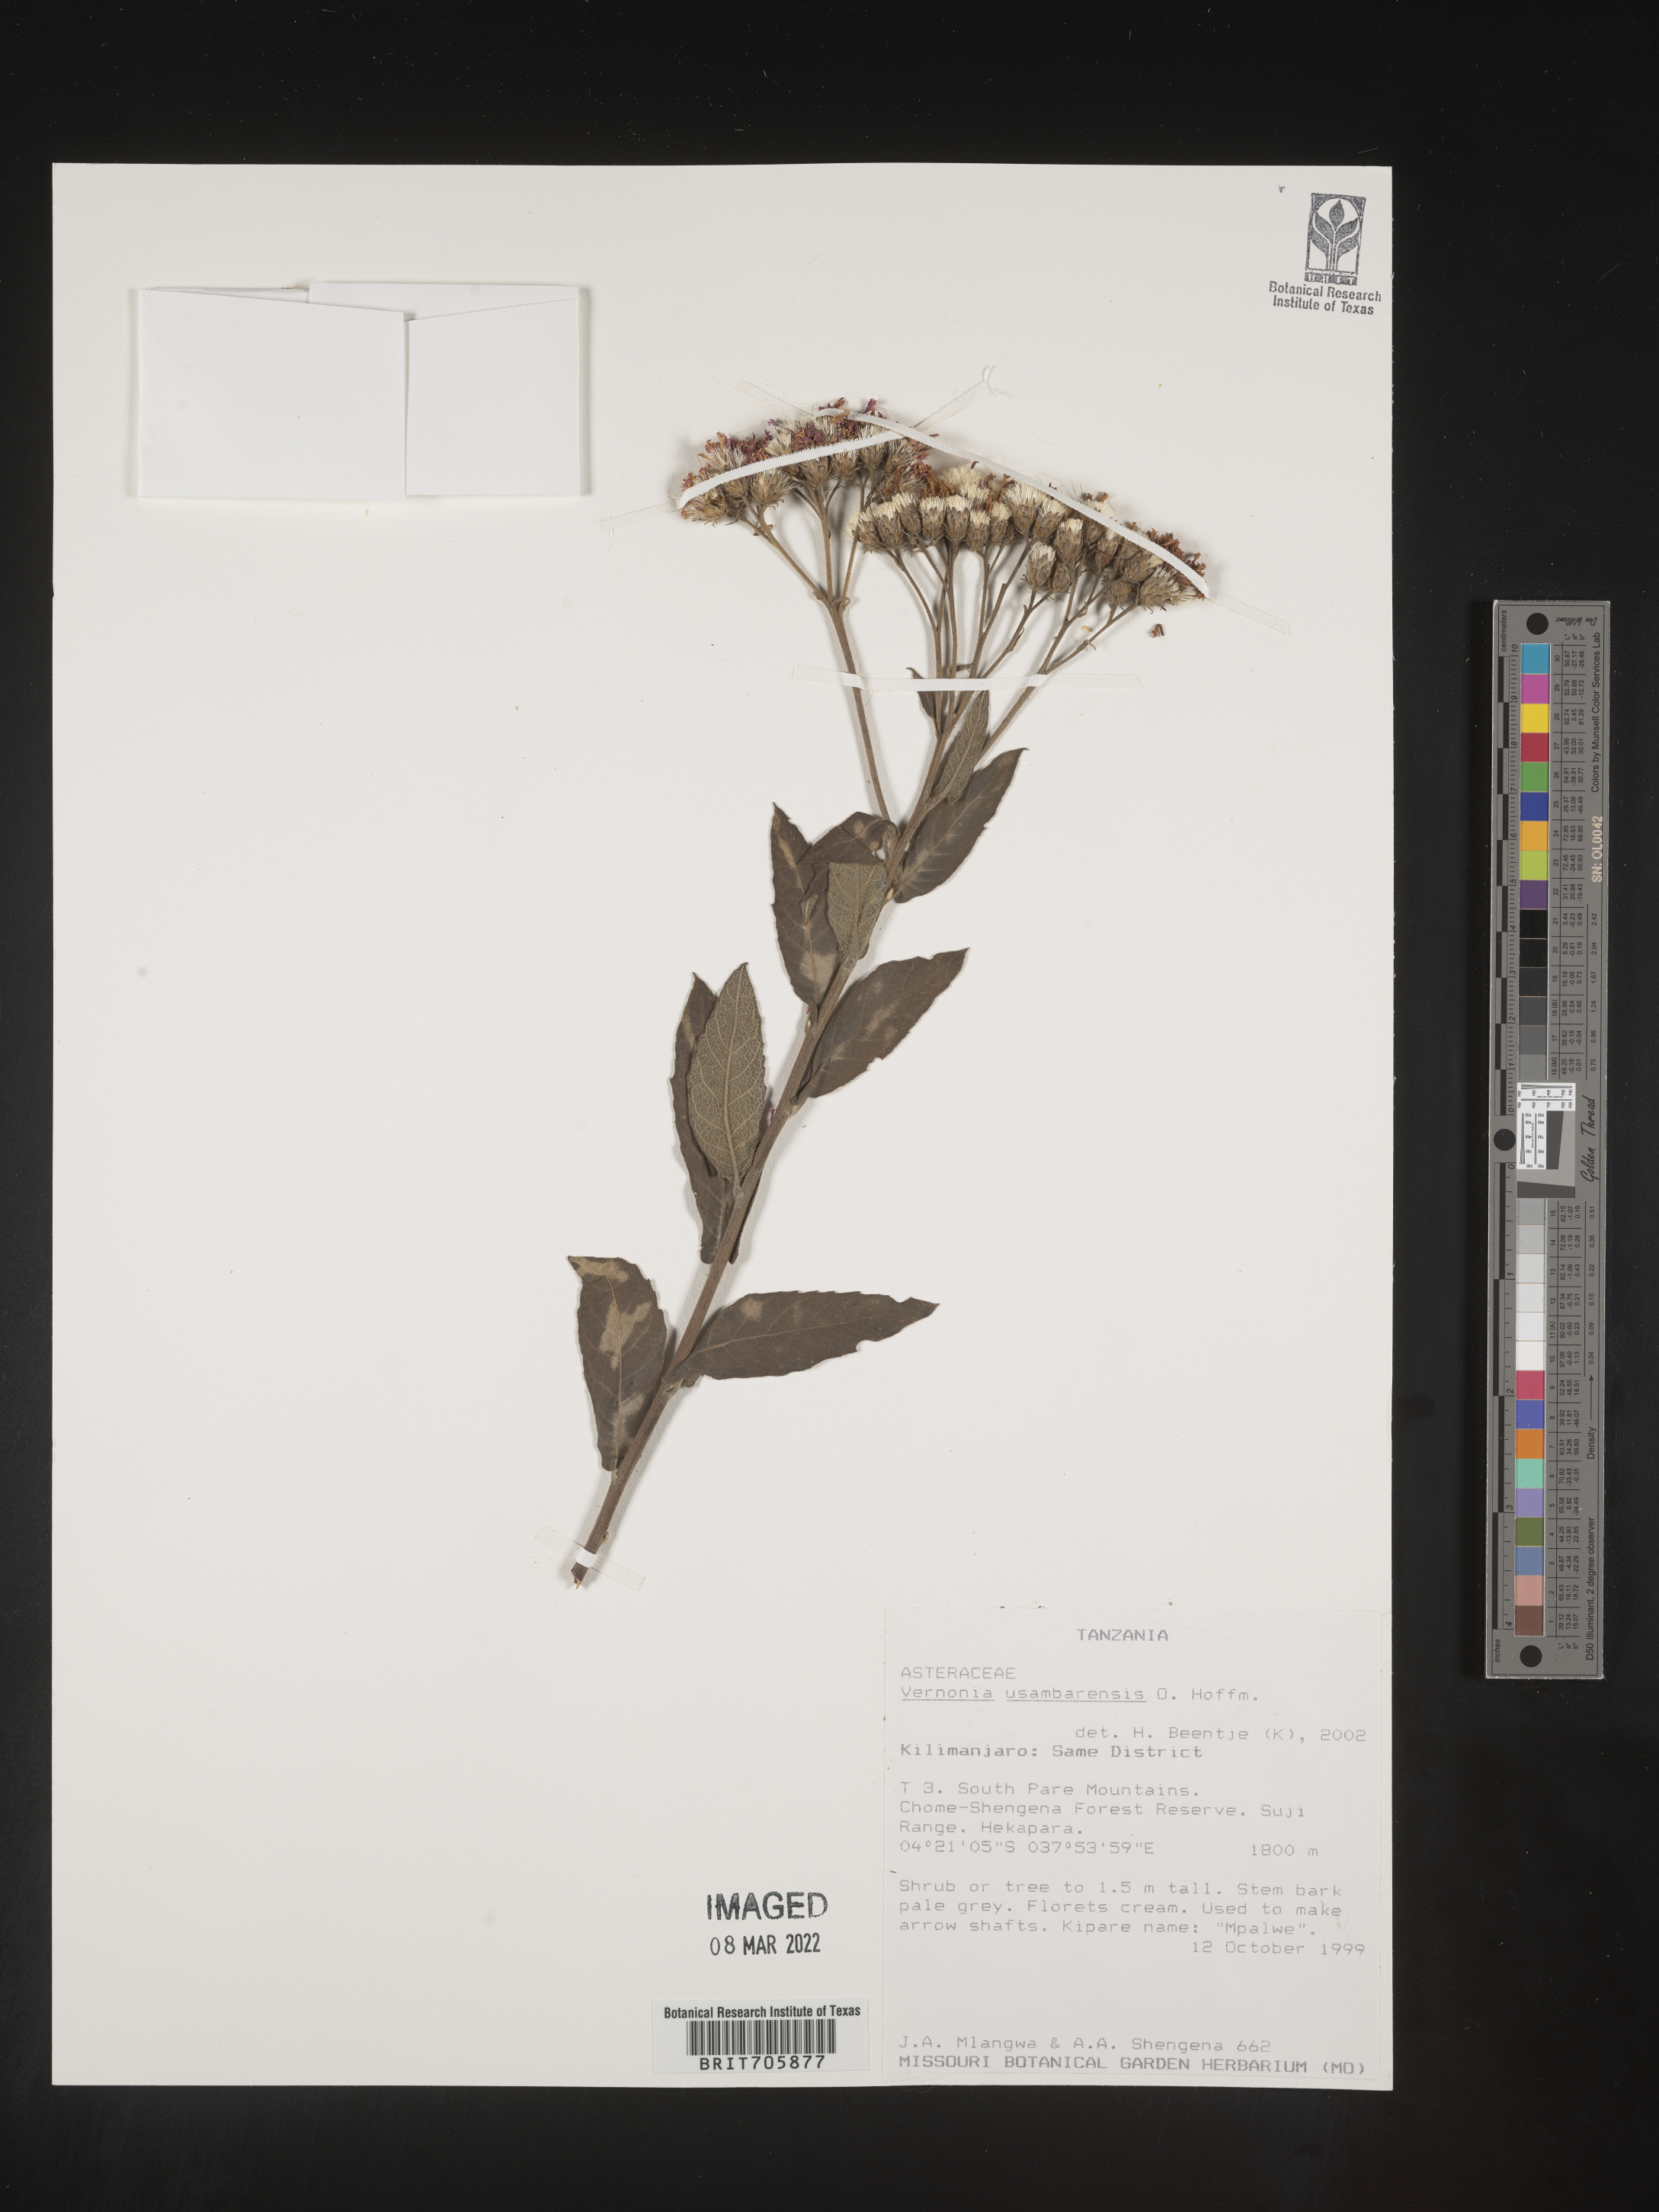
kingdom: Plantae
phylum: Tracheophyta
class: Magnoliopsida
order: Asterales
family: Asteraceae
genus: Vernonia
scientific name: Vernonia
